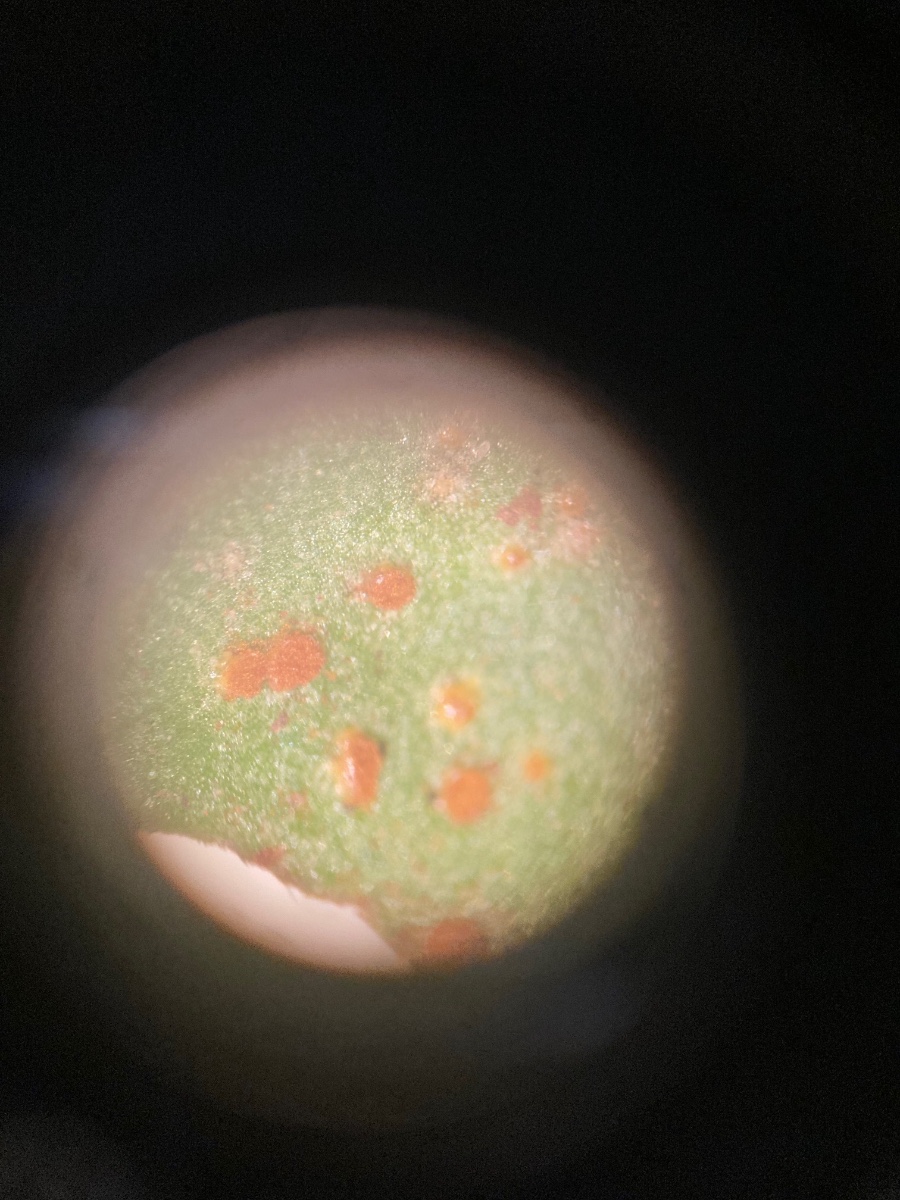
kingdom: Fungi
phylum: Basidiomycota
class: Pucciniomycetes
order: Pucciniales
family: Pucciniaceae
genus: Uromyces
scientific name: Uromyces viciae-fabae
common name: Broad bean rust
